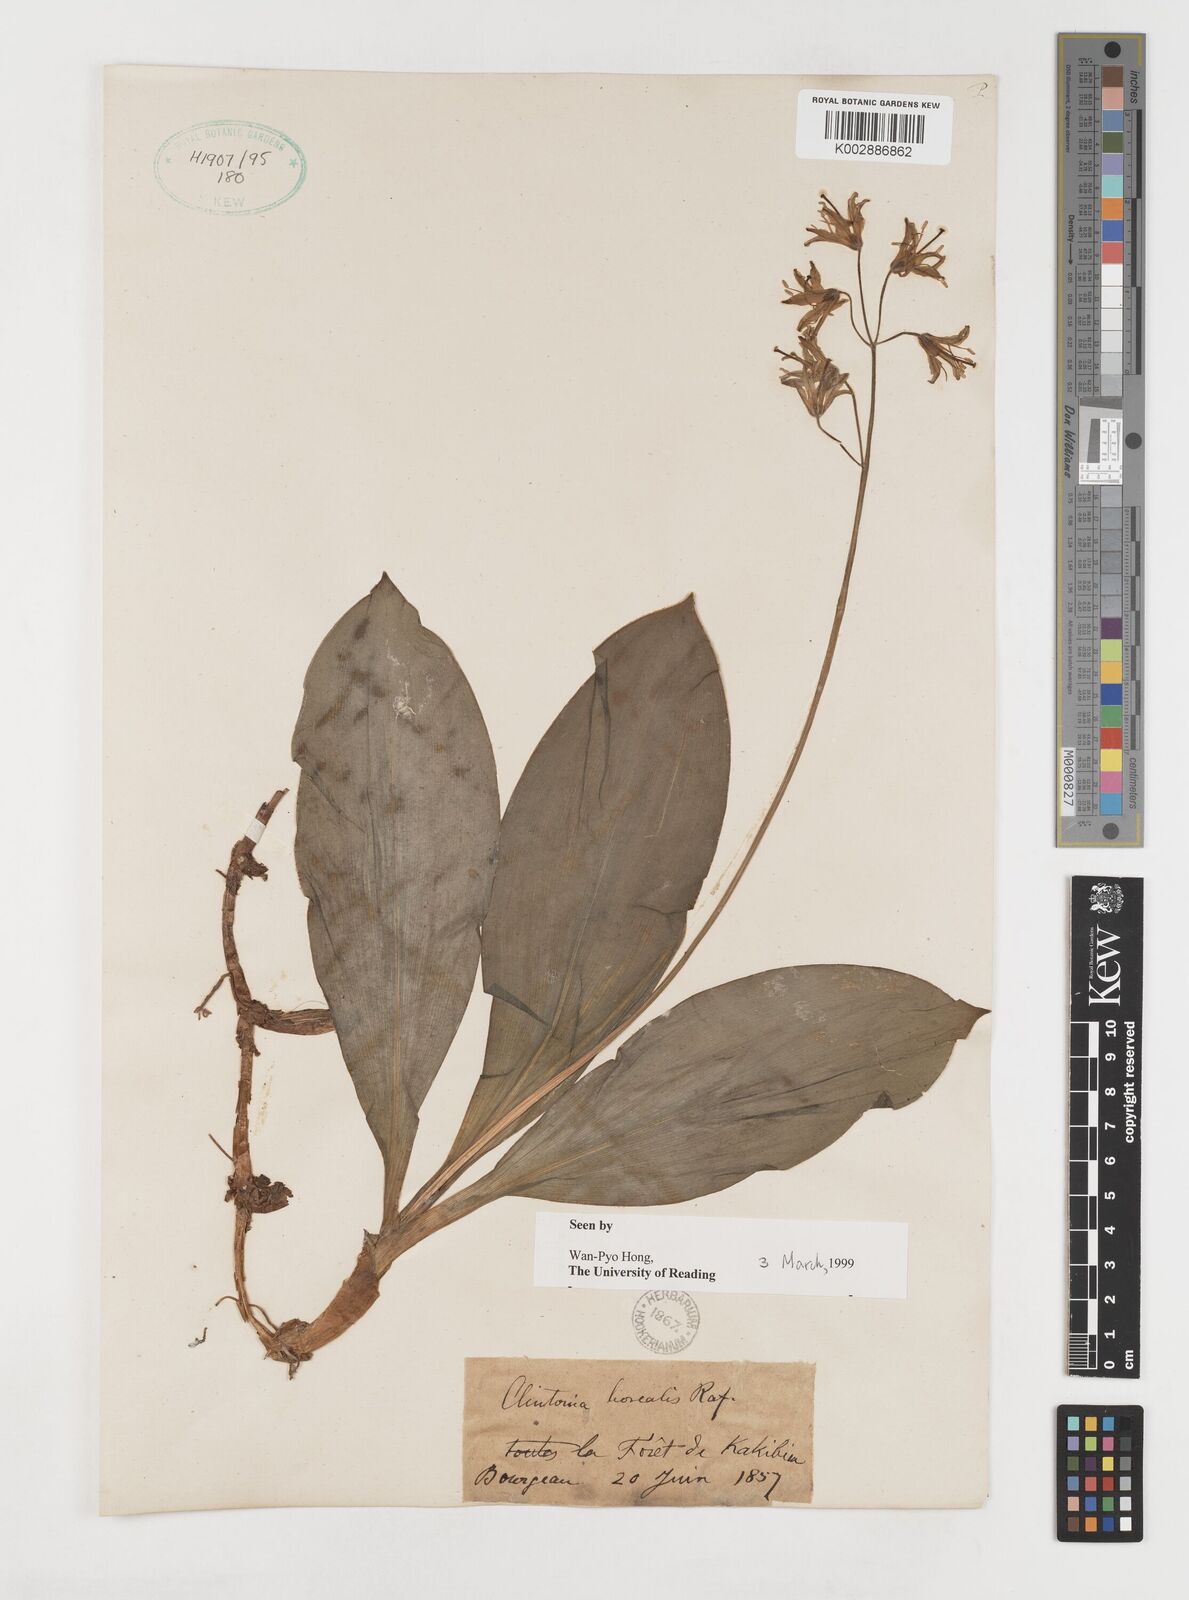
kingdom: Plantae
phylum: Tracheophyta
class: Liliopsida
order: Liliales
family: Liliaceae
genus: Clintonia
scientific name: Clintonia borealis
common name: Yellow clintonia
